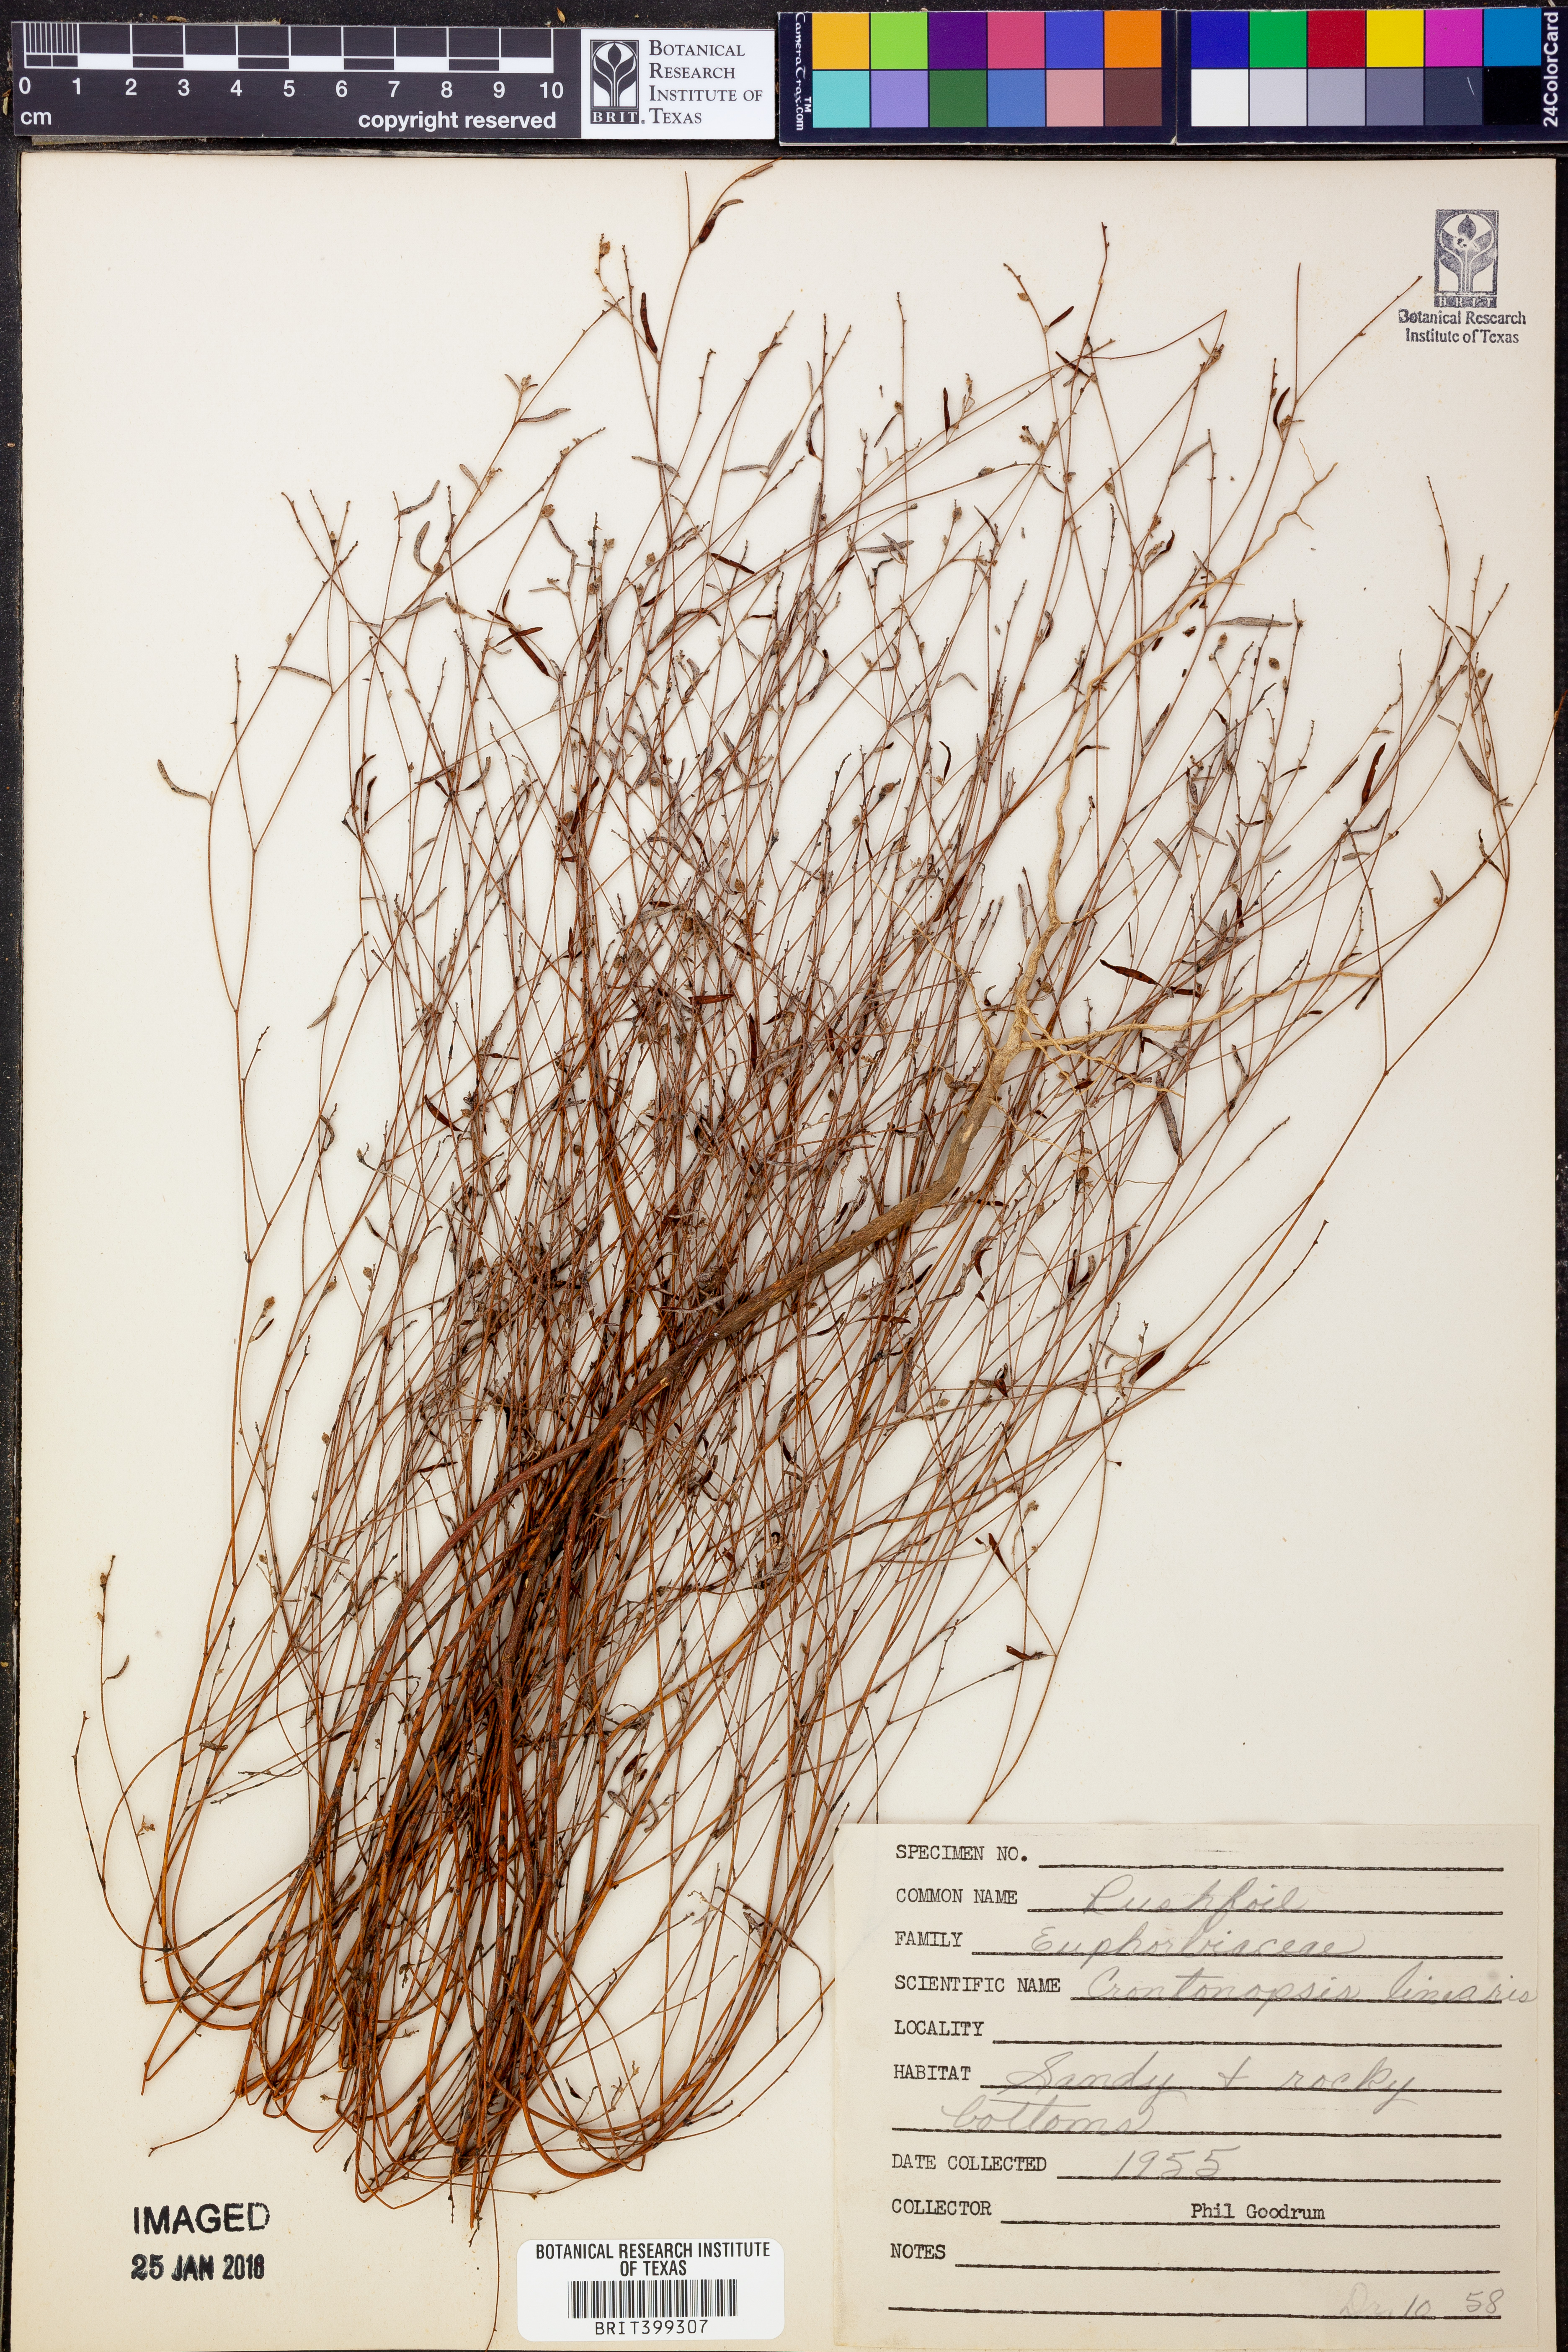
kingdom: Plantae
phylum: Tracheophyta
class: Magnoliopsida
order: Malpighiales
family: Euphorbiaceae
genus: Croton
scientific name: Croton michauxii
